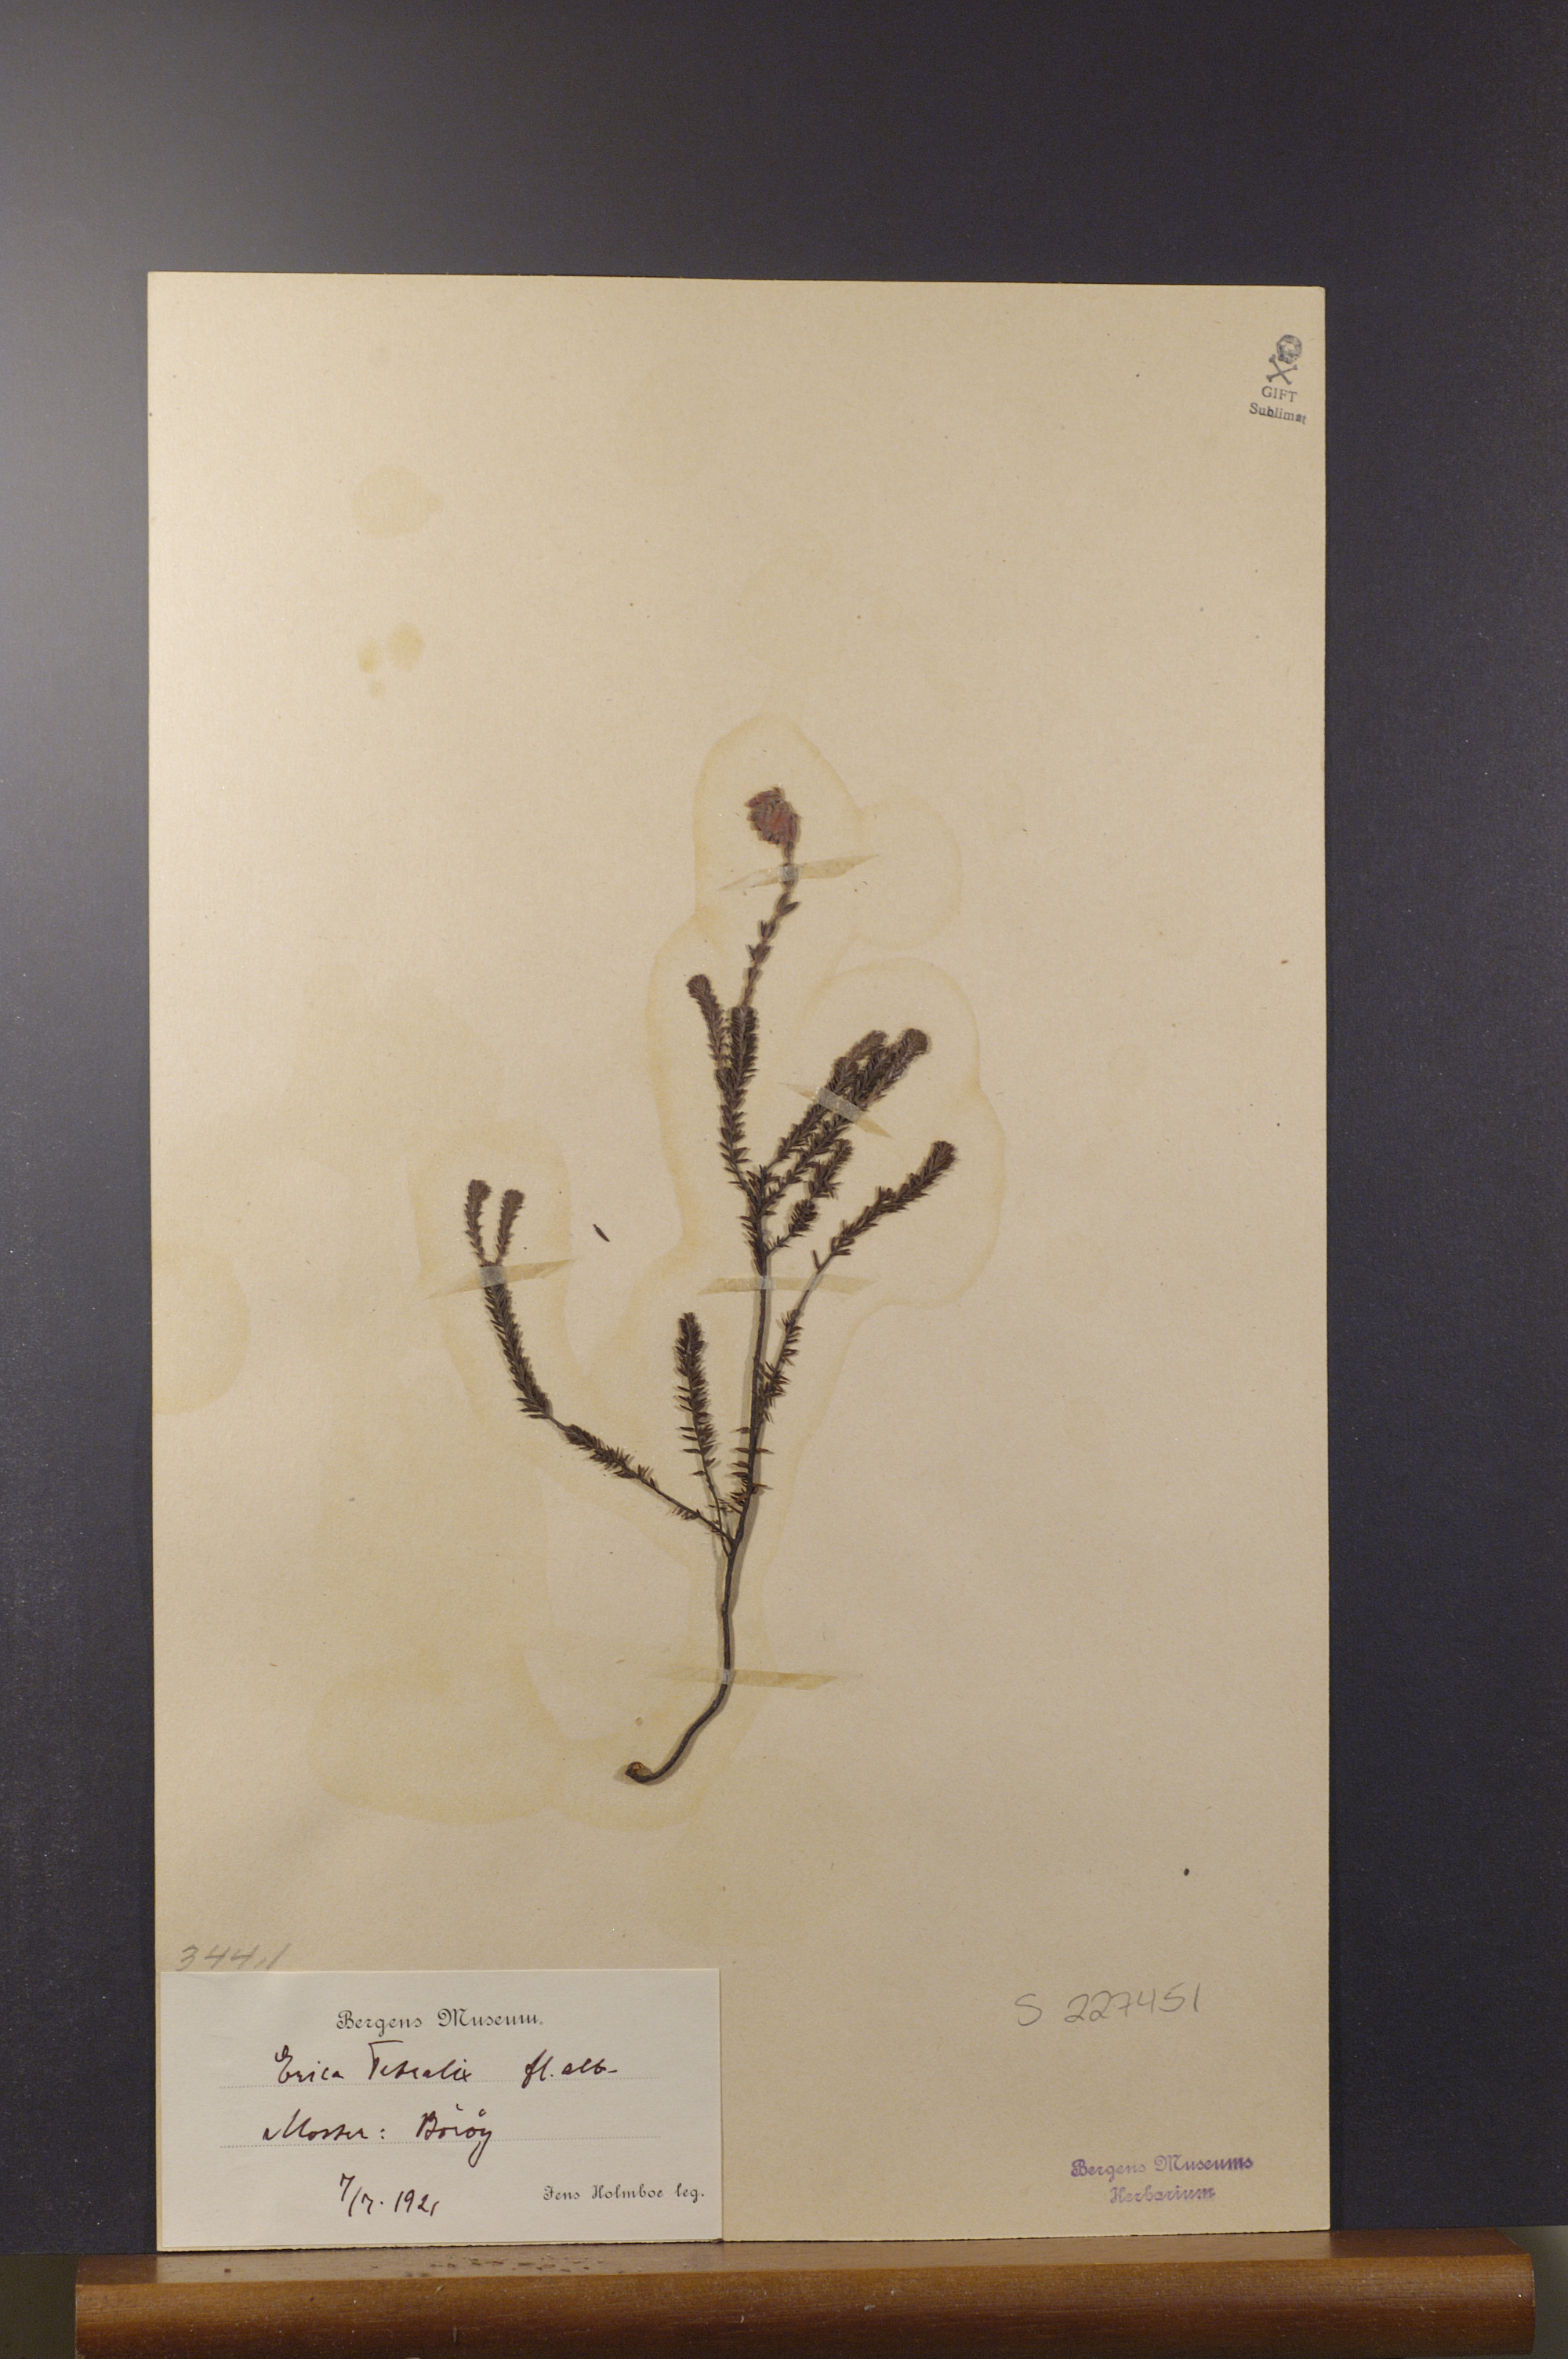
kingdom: Plantae
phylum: Tracheophyta
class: Magnoliopsida
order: Ericales
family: Ericaceae
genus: Erica
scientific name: Erica tetralix
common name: Cross-leaved heath
